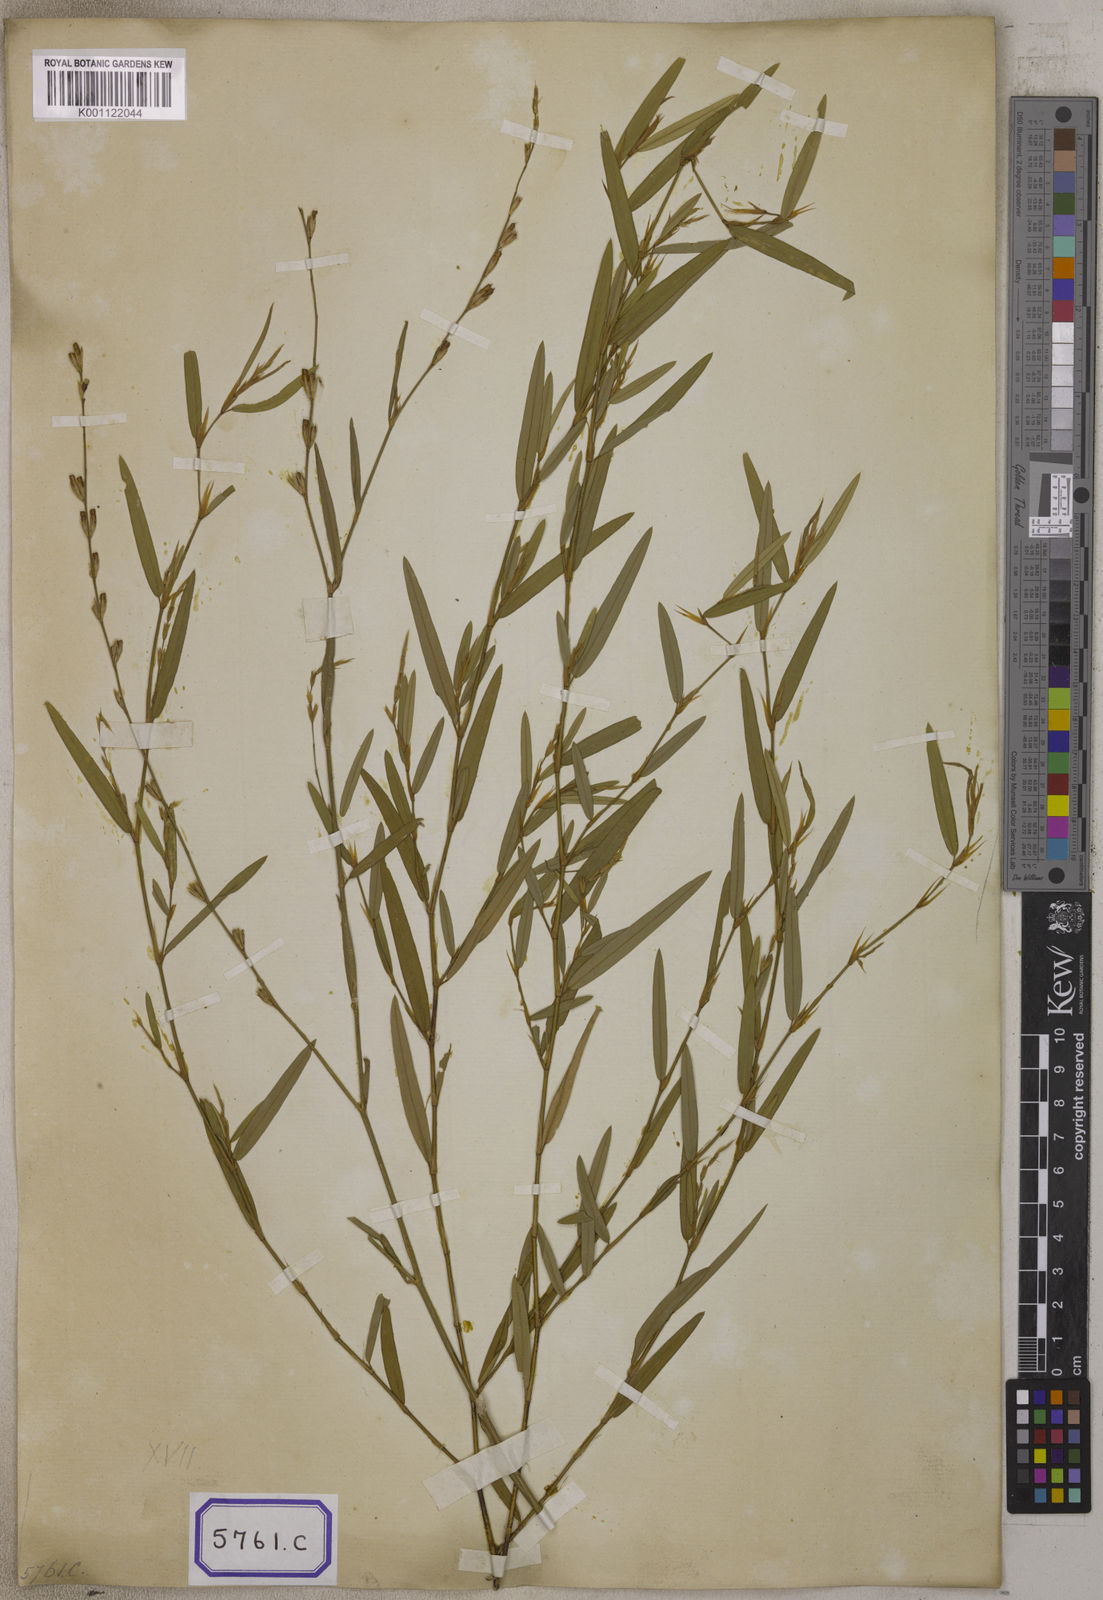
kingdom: Plantae
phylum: Tracheophyta
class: Magnoliopsida
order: Fabales
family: Fabaceae
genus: Alysicarpus
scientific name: Alysicarpus bupleurifolius
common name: Sweet alys
